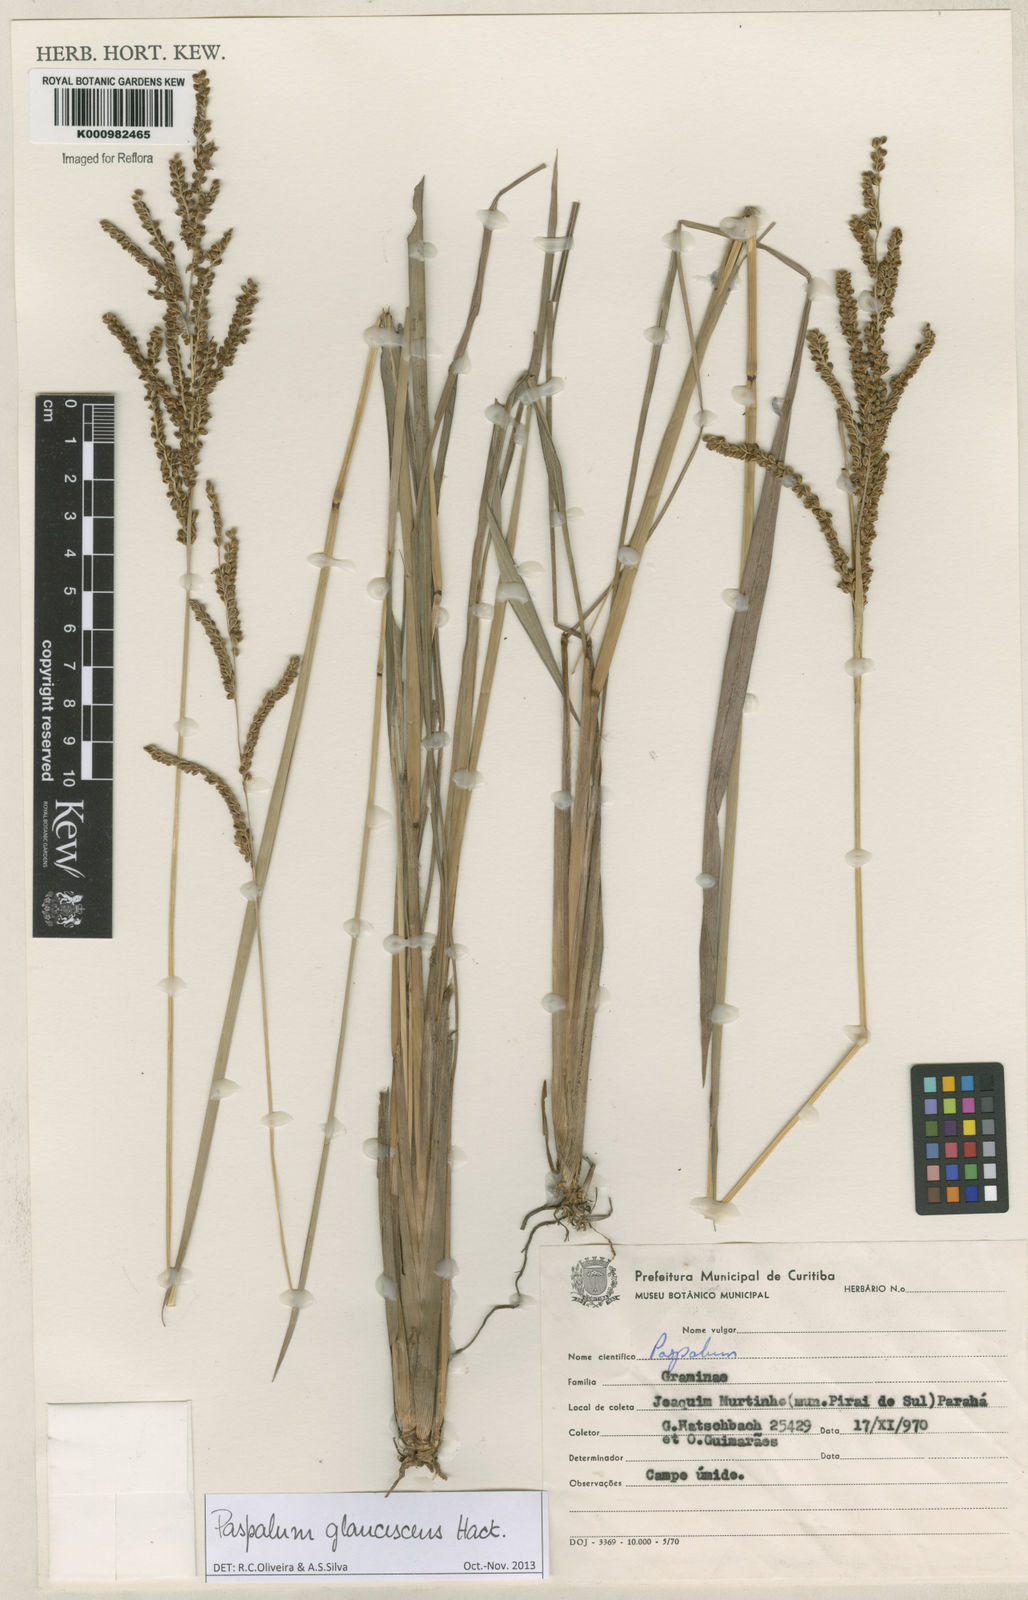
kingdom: Plantae
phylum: Tracheophyta
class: Liliopsida
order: Poales
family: Poaceae
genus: Paspalum
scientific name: Paspalum glaucescens
